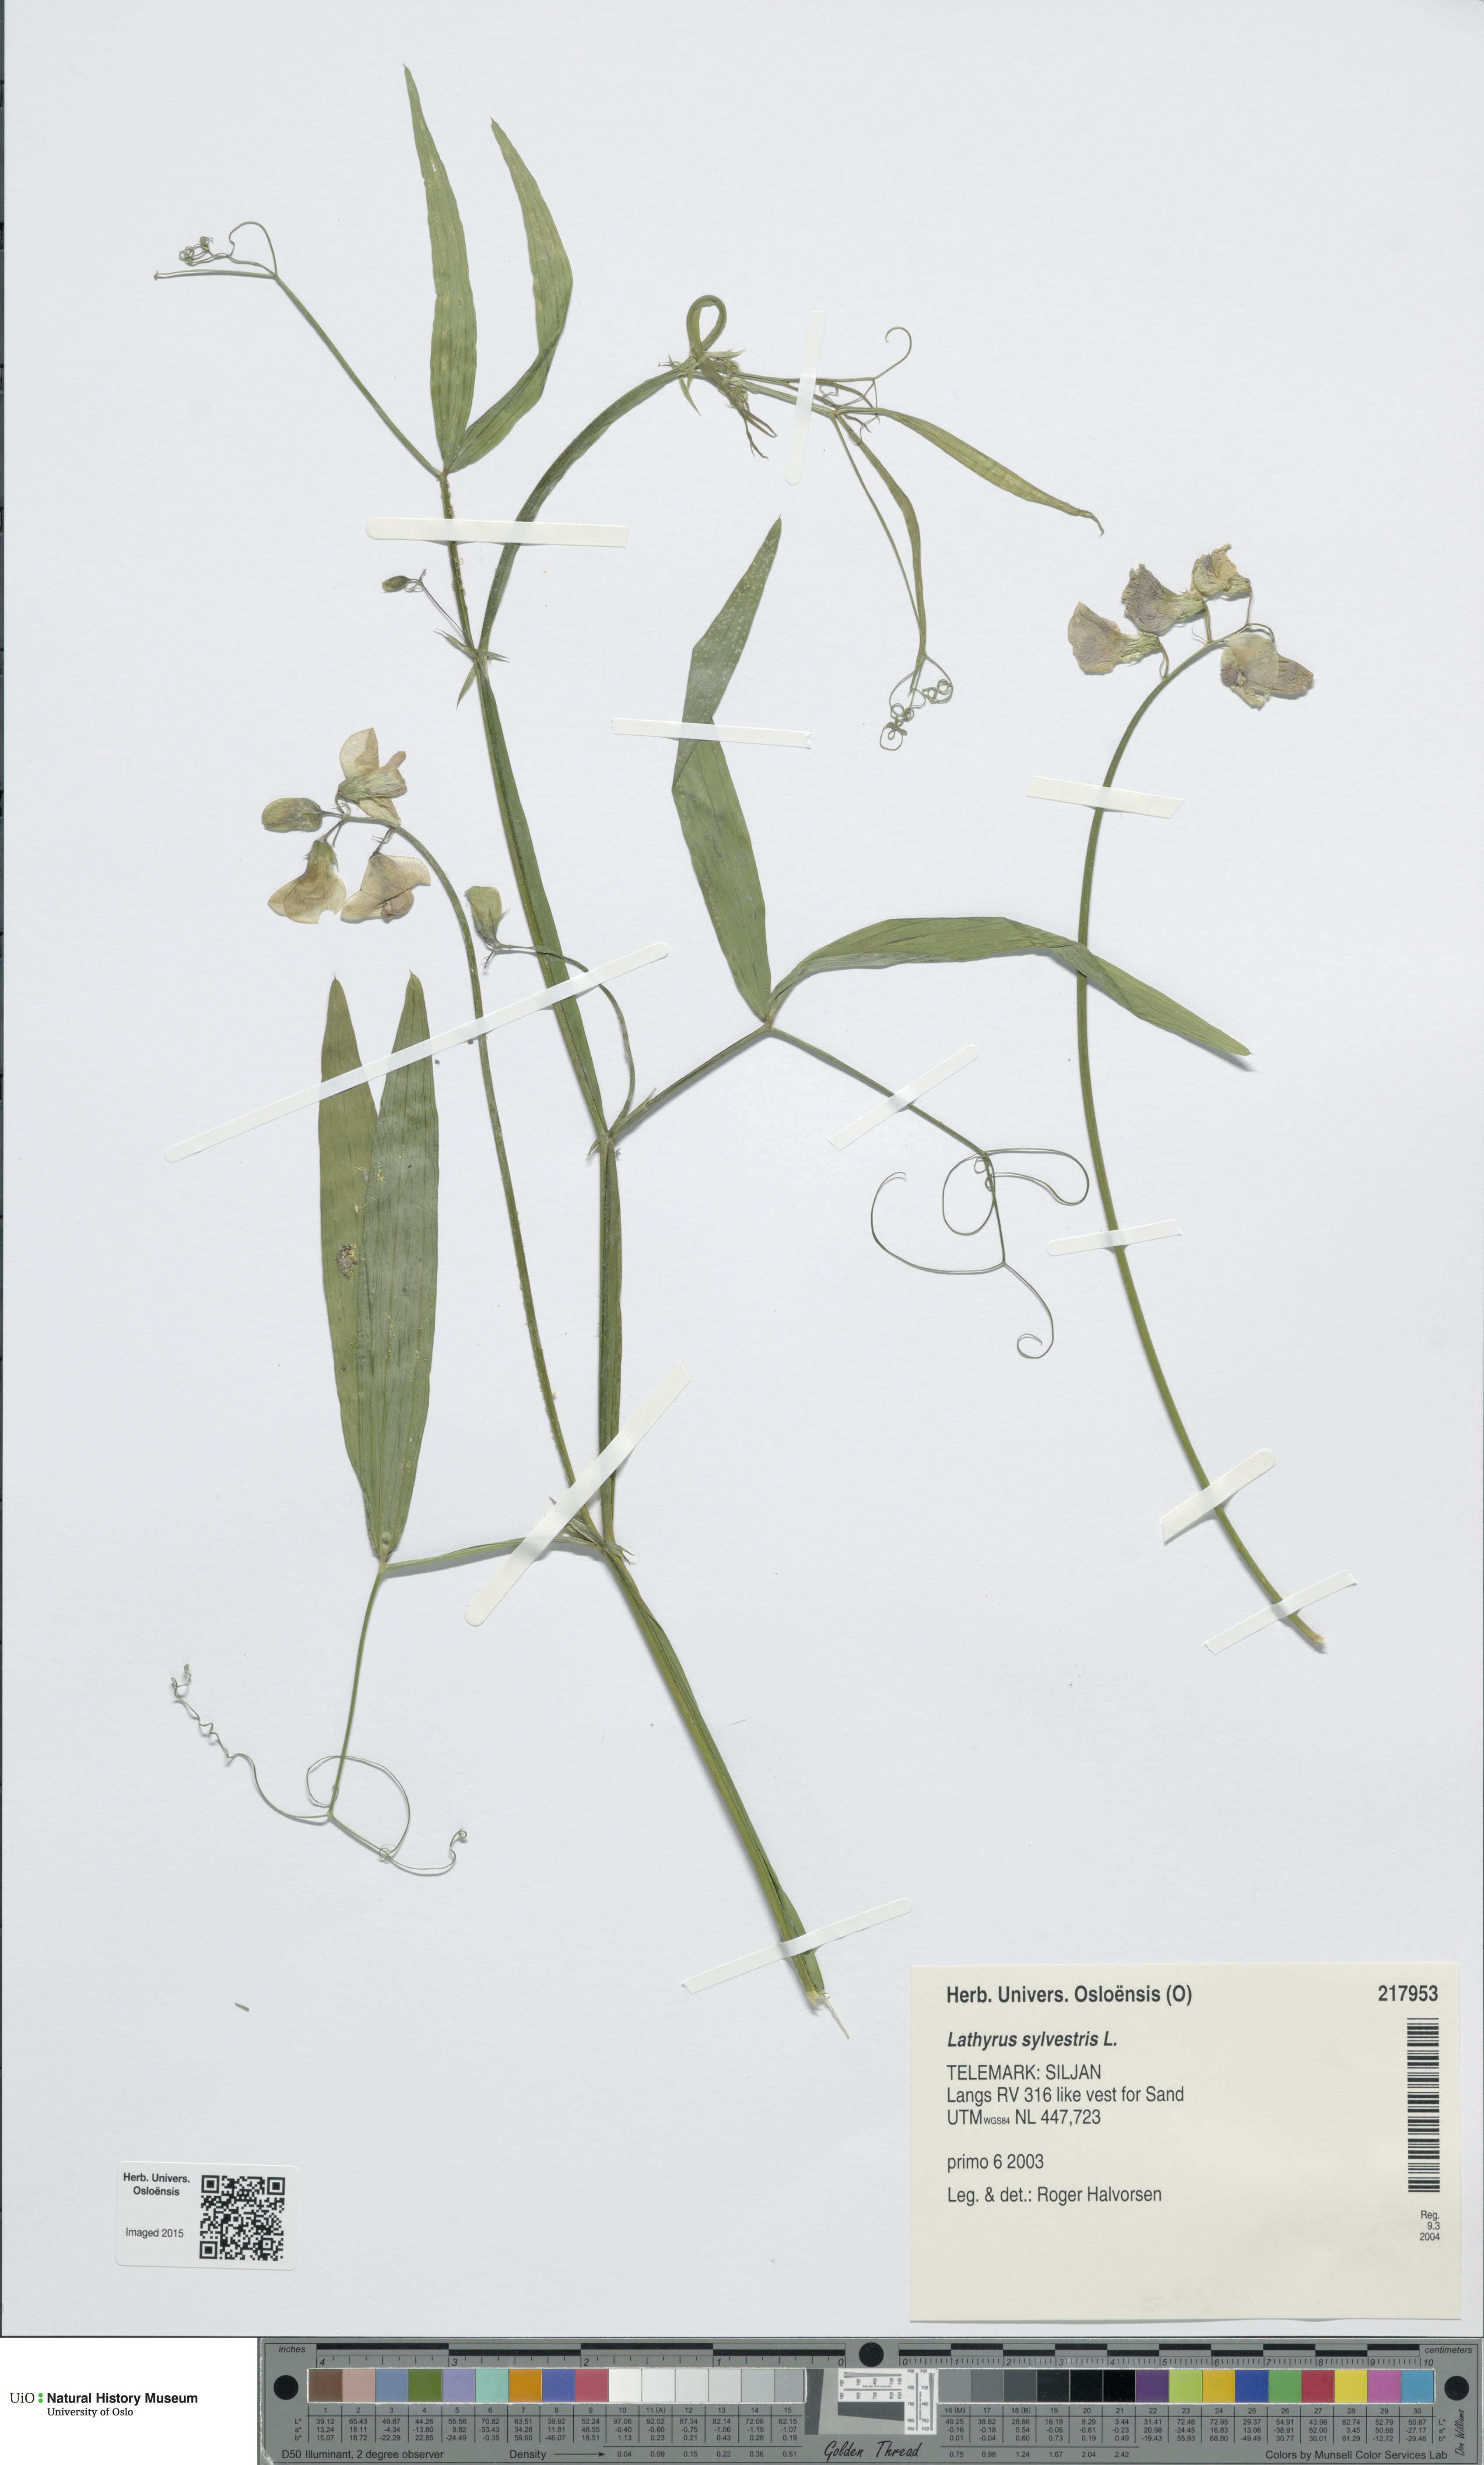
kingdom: Plantae
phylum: Tracheophyta
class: Magnoliopsida
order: Fabales
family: Fabaceae
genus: Lathyrus
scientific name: Lathyrus sylvestris
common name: Flat pea
